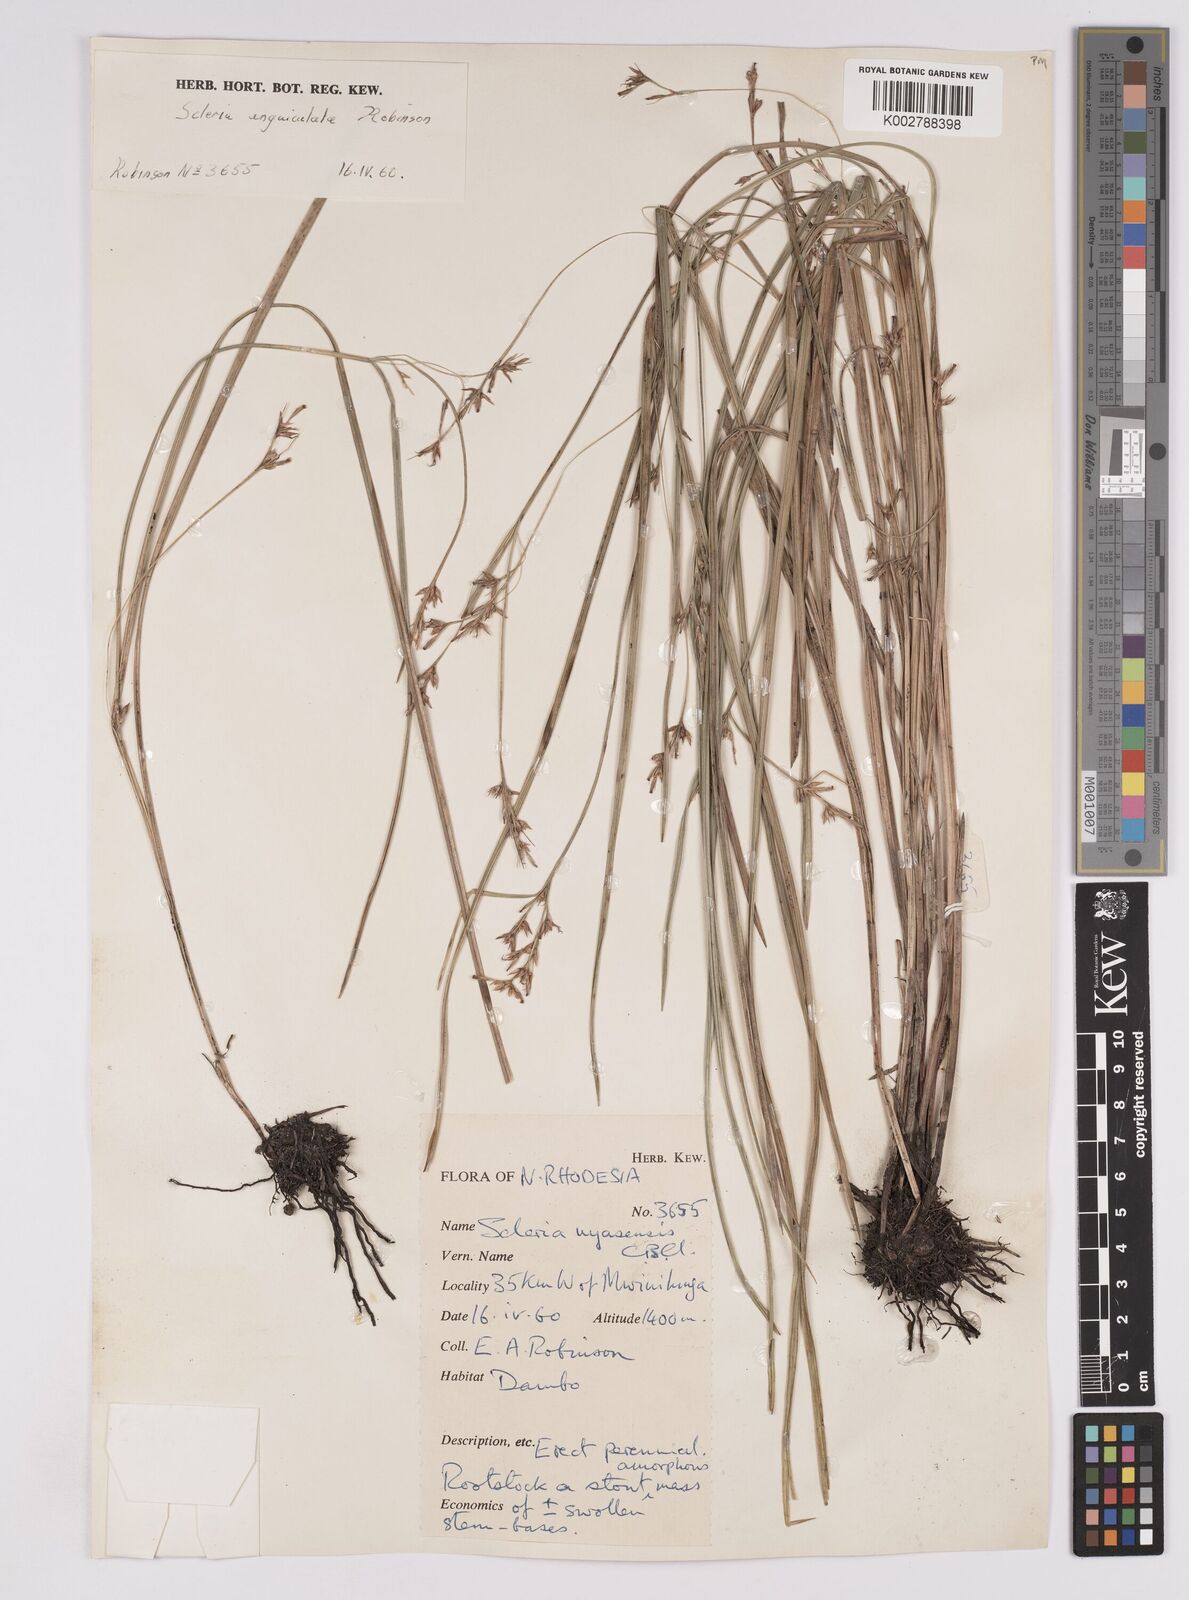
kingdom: Plantae
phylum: Tracheophyta
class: Liliopsida
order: Poales
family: Cyperaceae
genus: Scleria
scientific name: Scleria unguiculata
